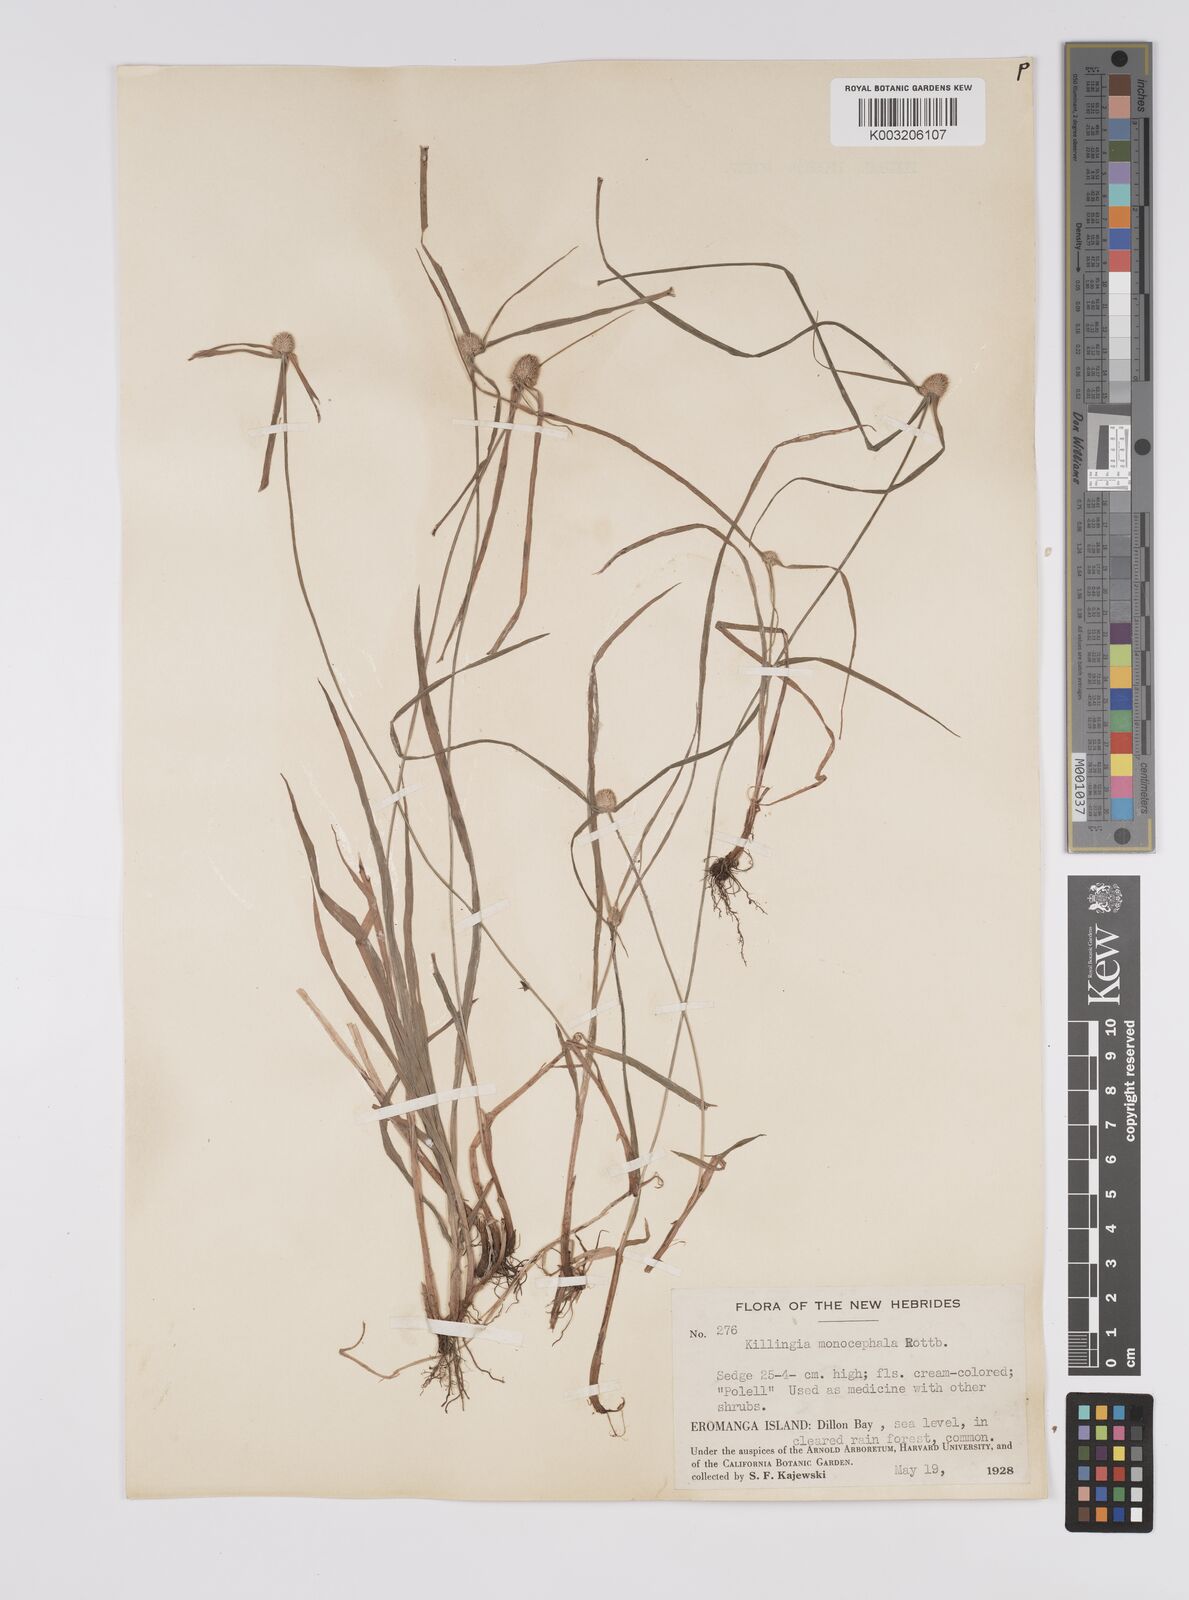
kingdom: Plantae
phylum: Tracheophyta
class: Liliopsida
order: Poales
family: Cyperaceae
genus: Cyperus
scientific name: Cyperus nemoralis
